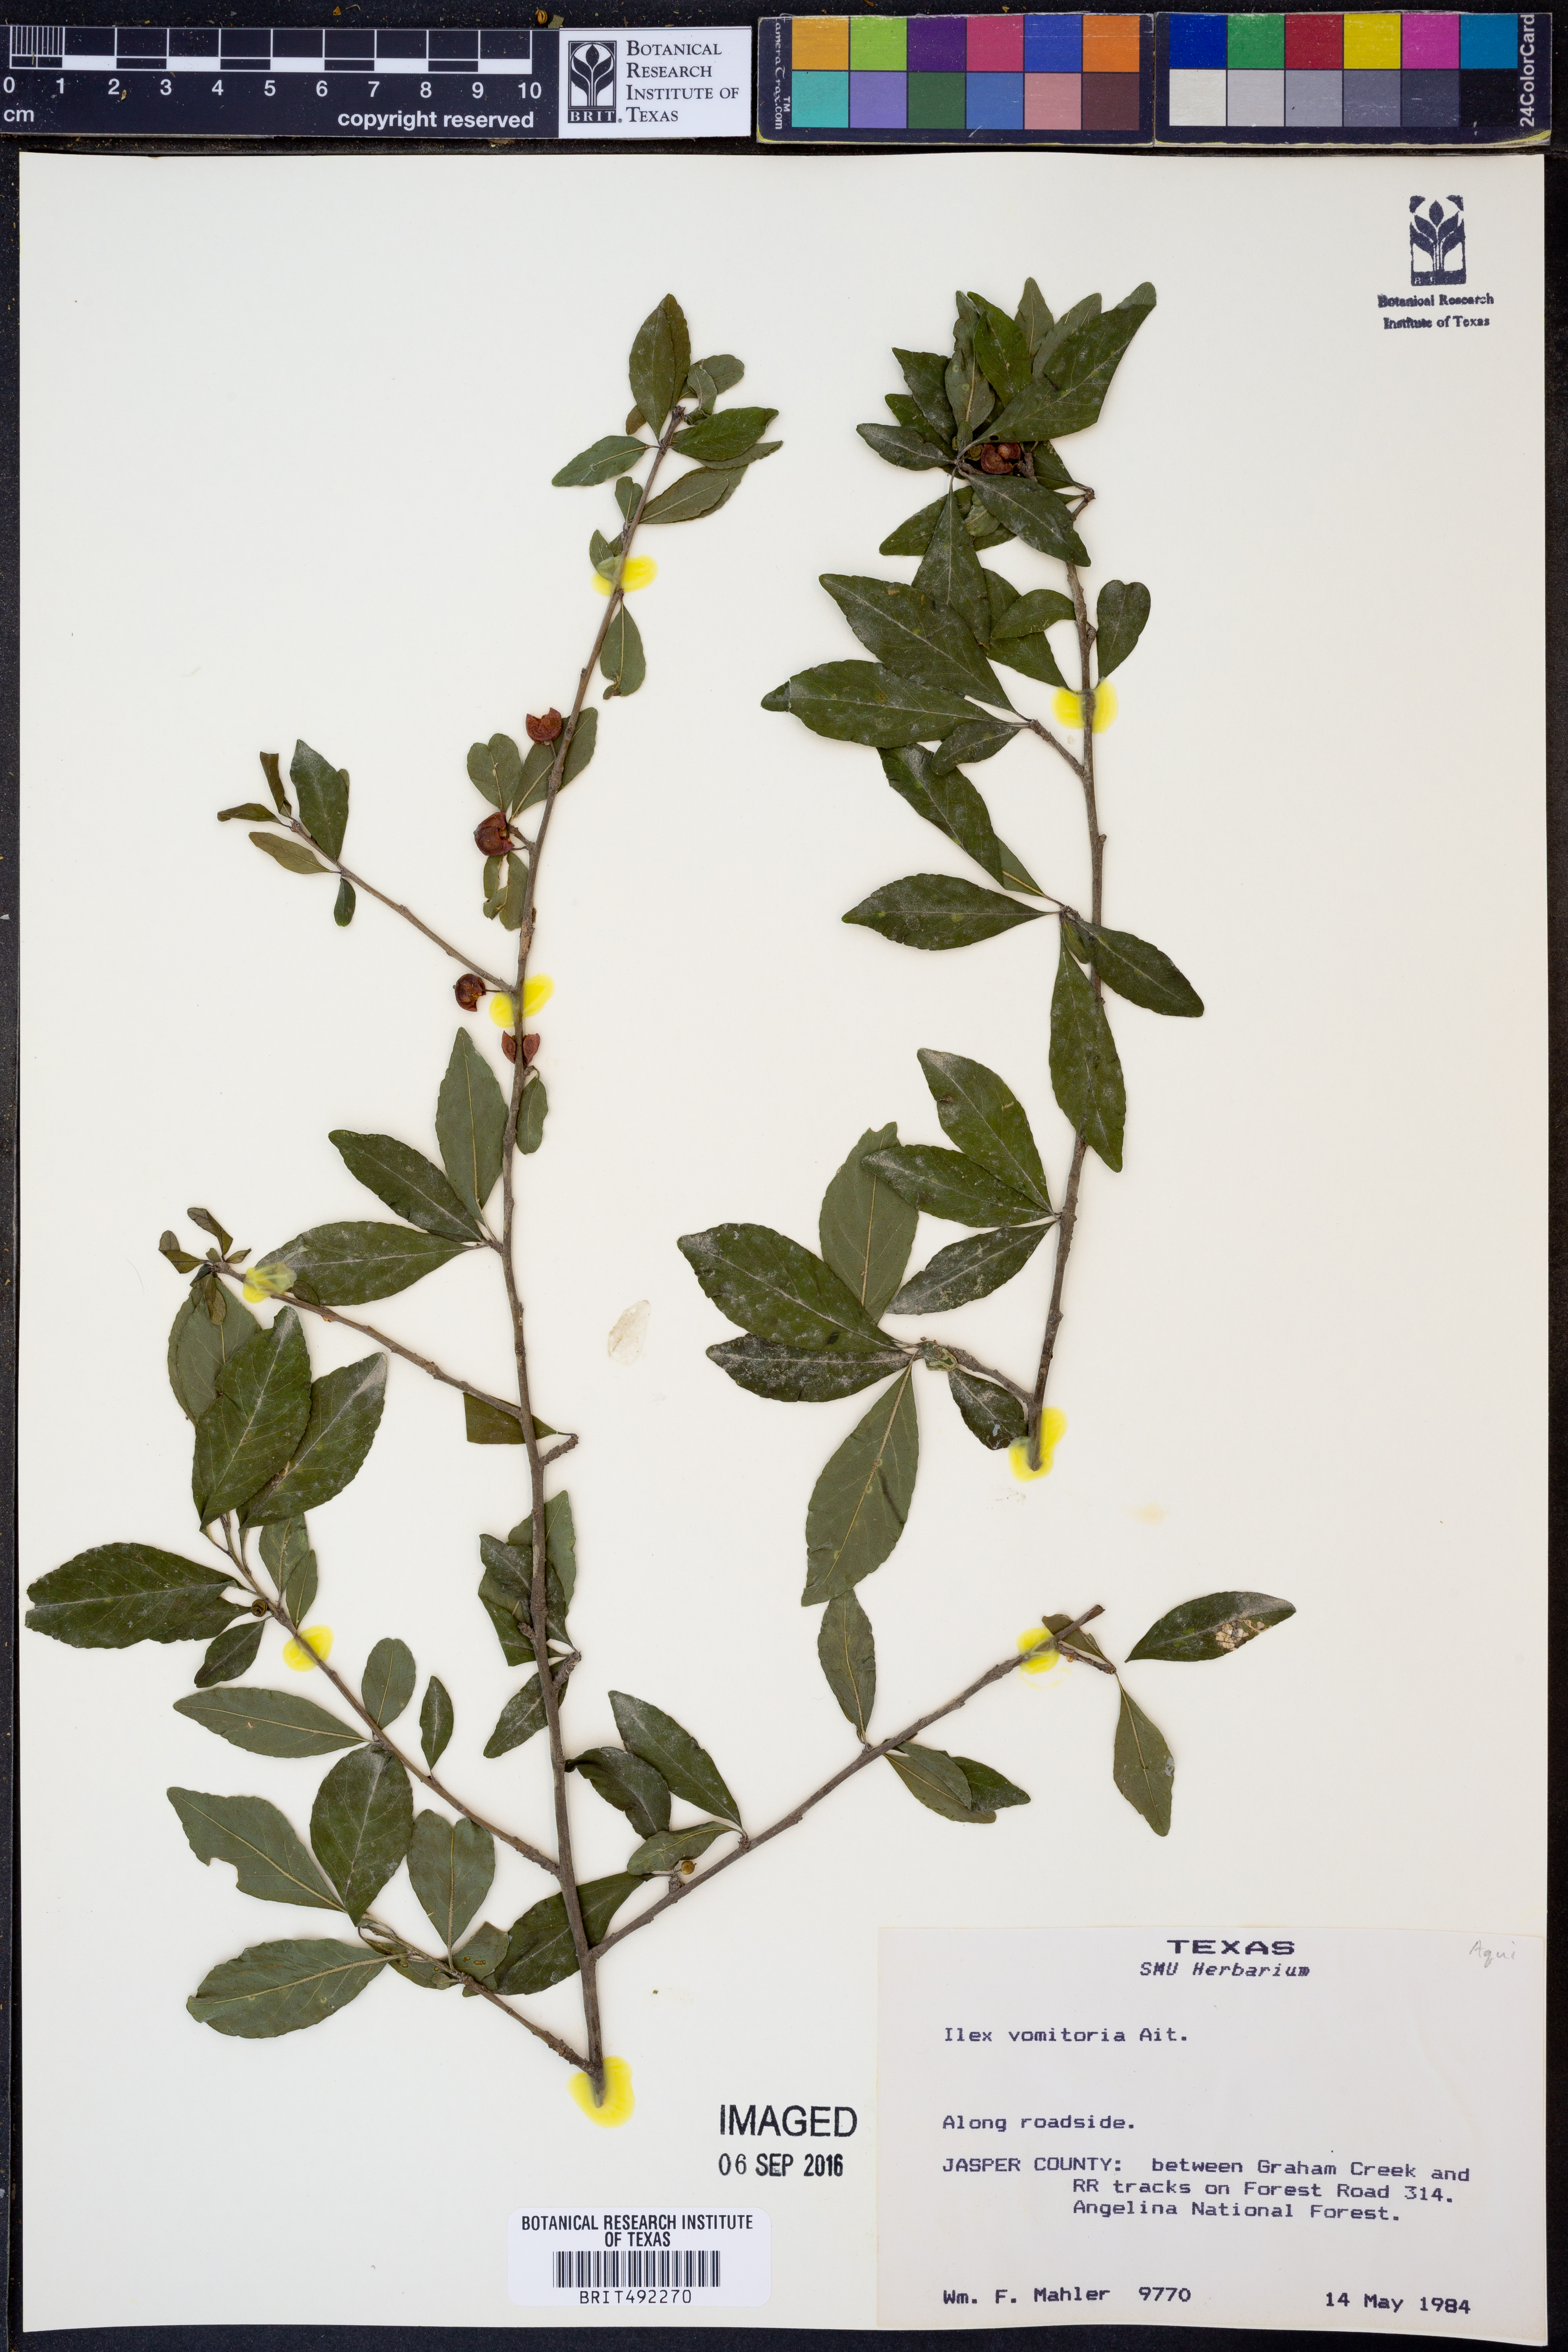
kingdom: Plantae
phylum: Tracheophyta
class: Magnoliopsida
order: Aquifoliales
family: Aquifoliaceae
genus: Ilex
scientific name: Ilex vomitoria
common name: Yaupon holly
